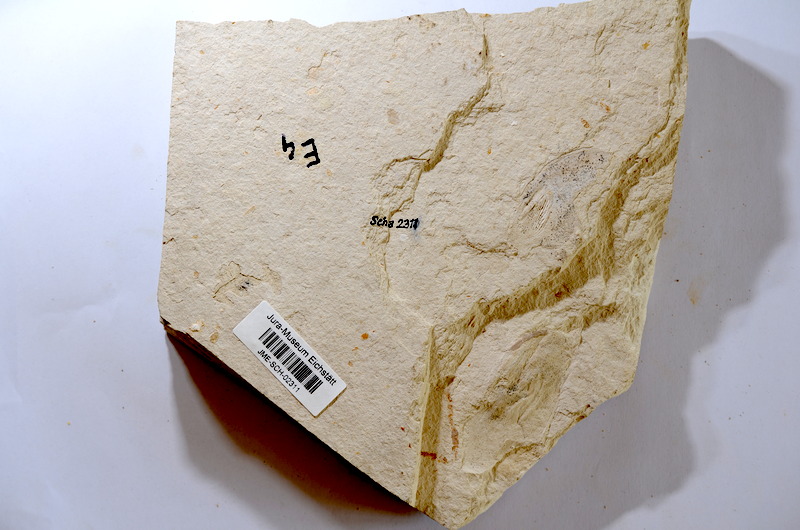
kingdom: Animalia
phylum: Chordata
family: Ascalaboidae
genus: Tharsis
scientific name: Tharsis dubius
